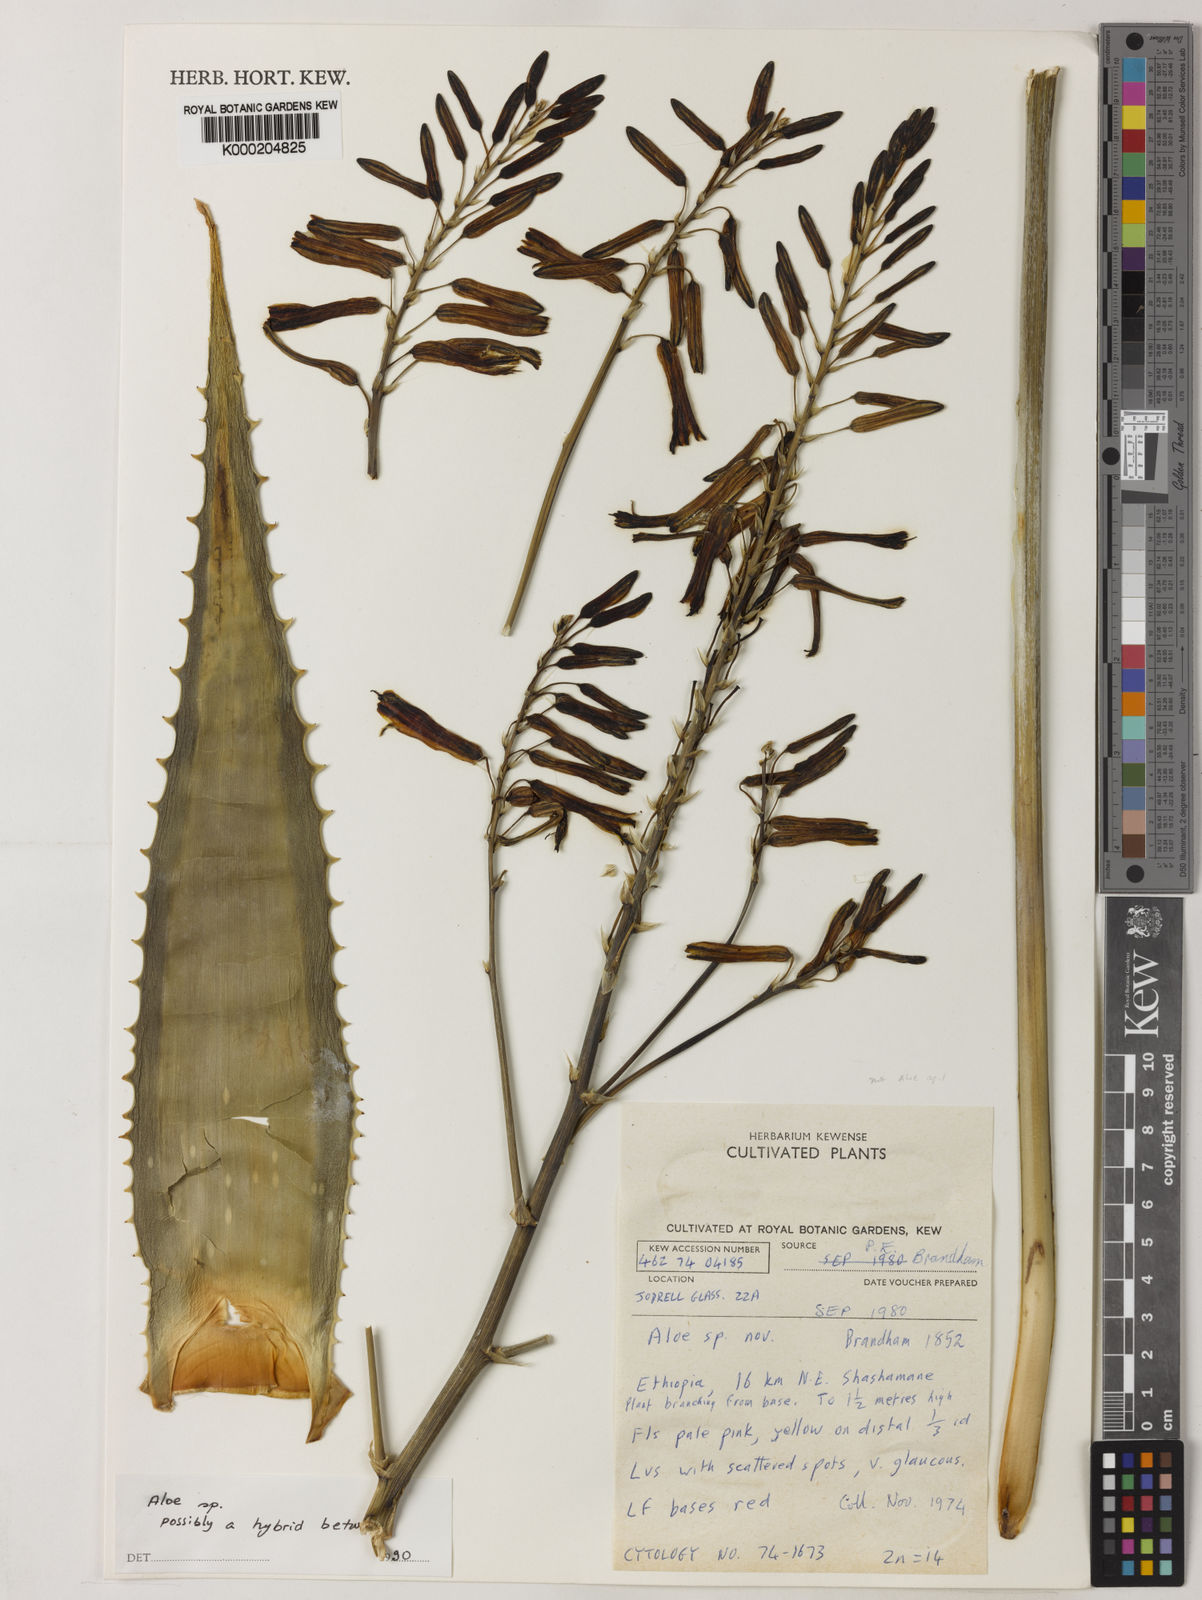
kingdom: Plantae
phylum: Tracheophyta
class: Liliopsida
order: Asparagales
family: Asphodelaceae
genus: Aloe
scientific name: Aloe gilbertii
